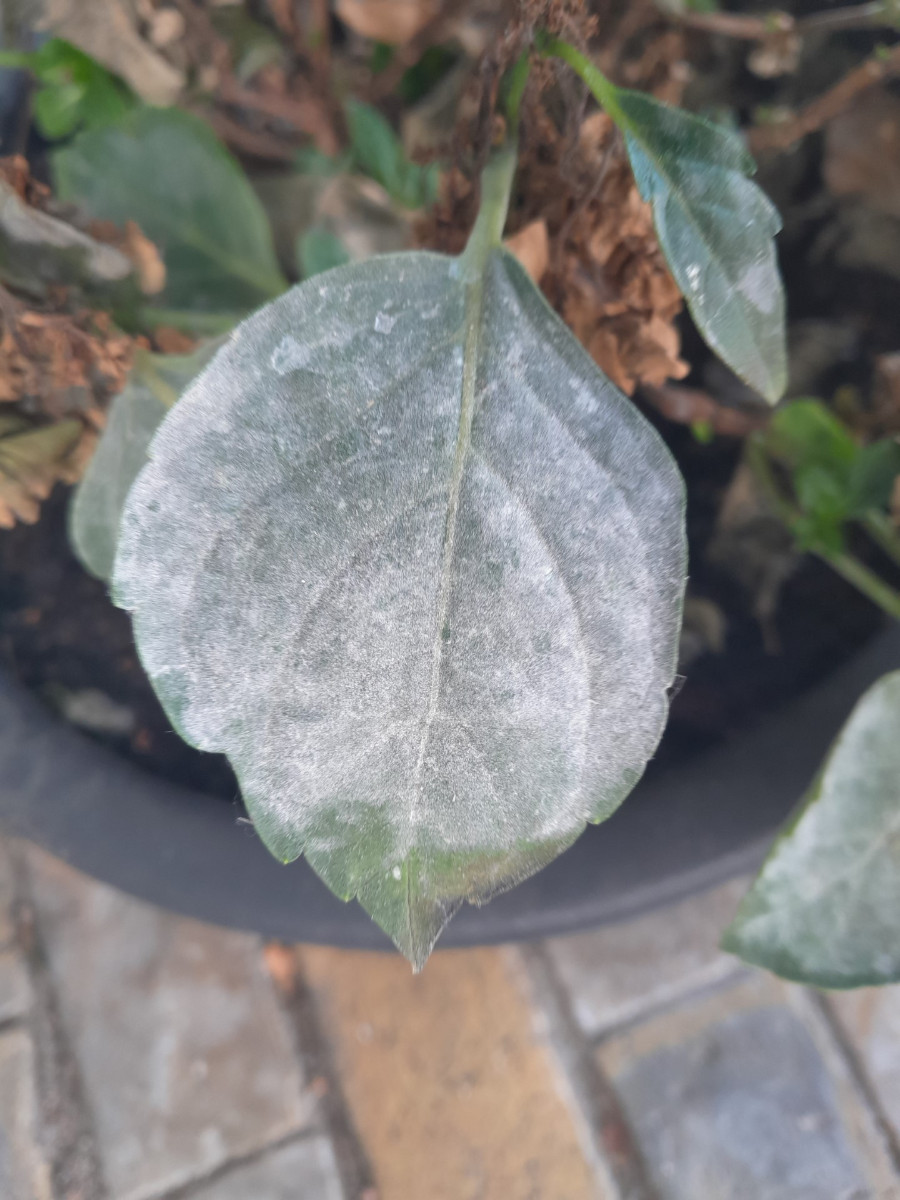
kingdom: Fungi
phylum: Ascomycota
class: Leotiomycetes
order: Helotiales
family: Erysiphaceae
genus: Pseudoidium
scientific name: Pseudoidium hortensiae
